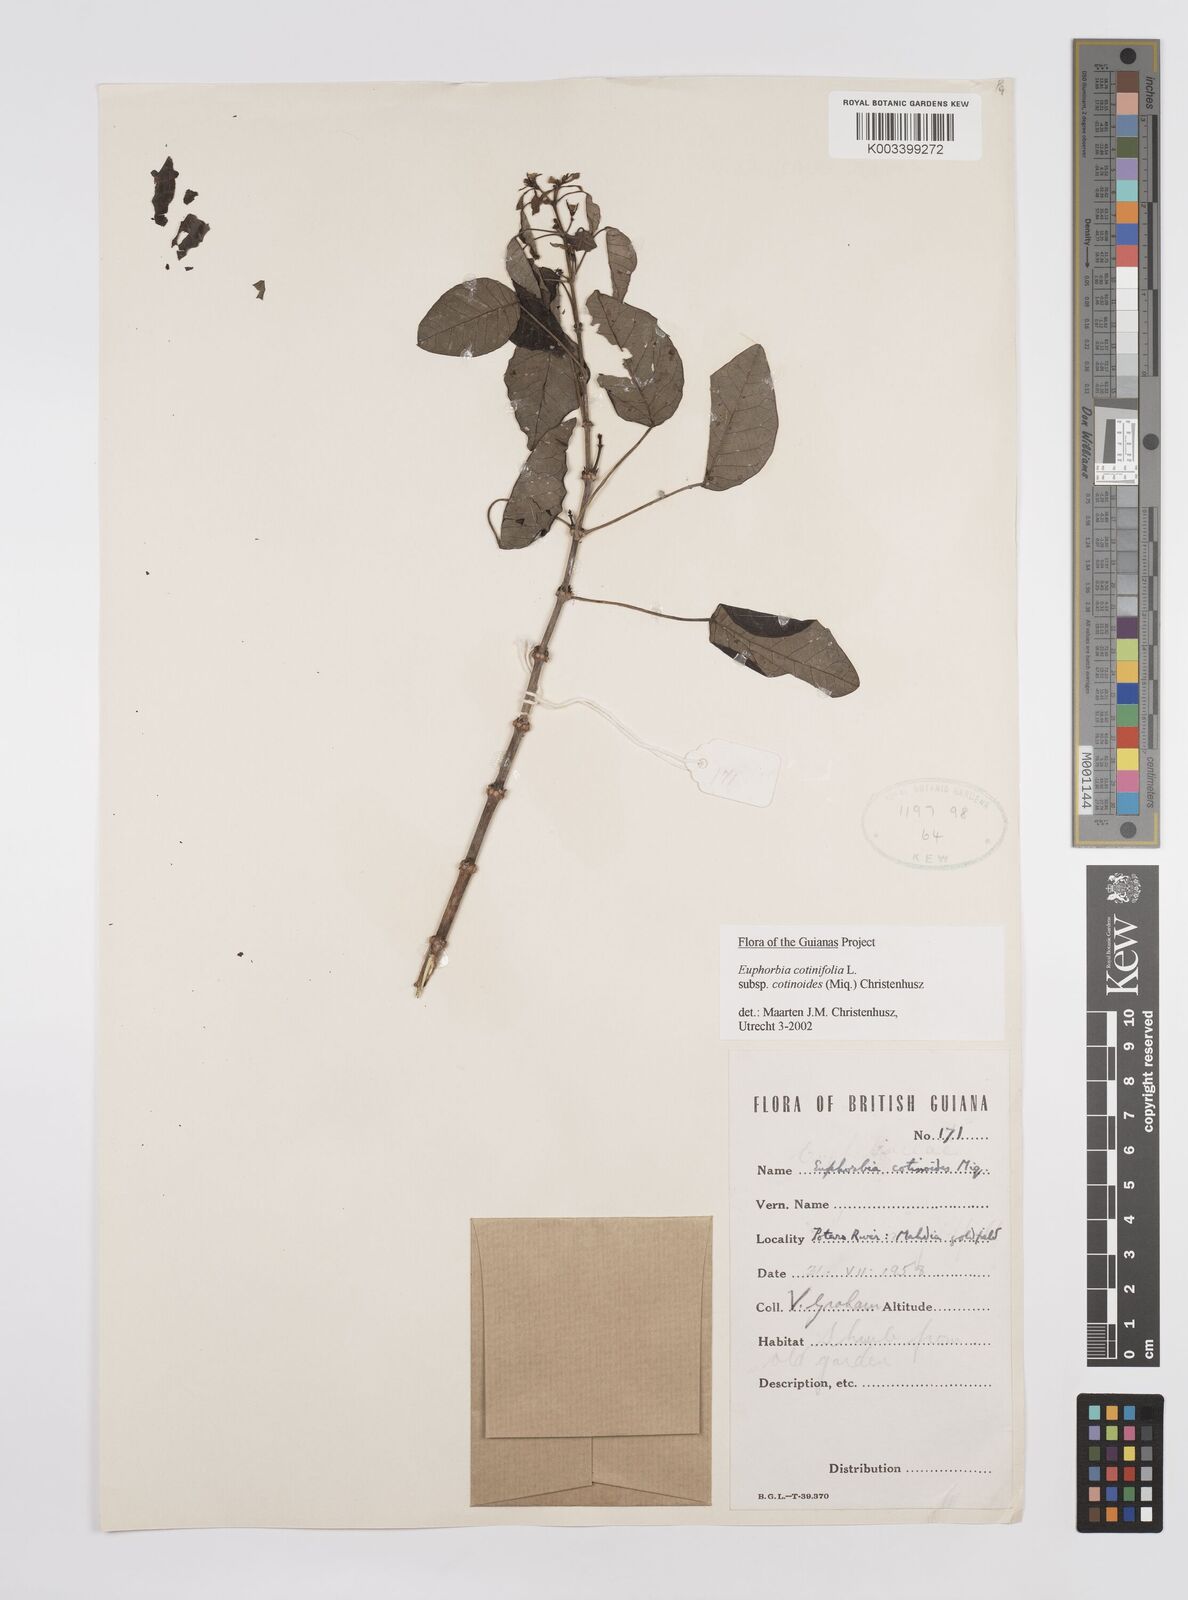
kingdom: Plantae
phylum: Tracheophyta
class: Magnoliopsida
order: Malpighiales
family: Euphorbiaceae
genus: Euphorbia
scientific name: Euphorbia cotinifolia
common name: Tropical smokebush
